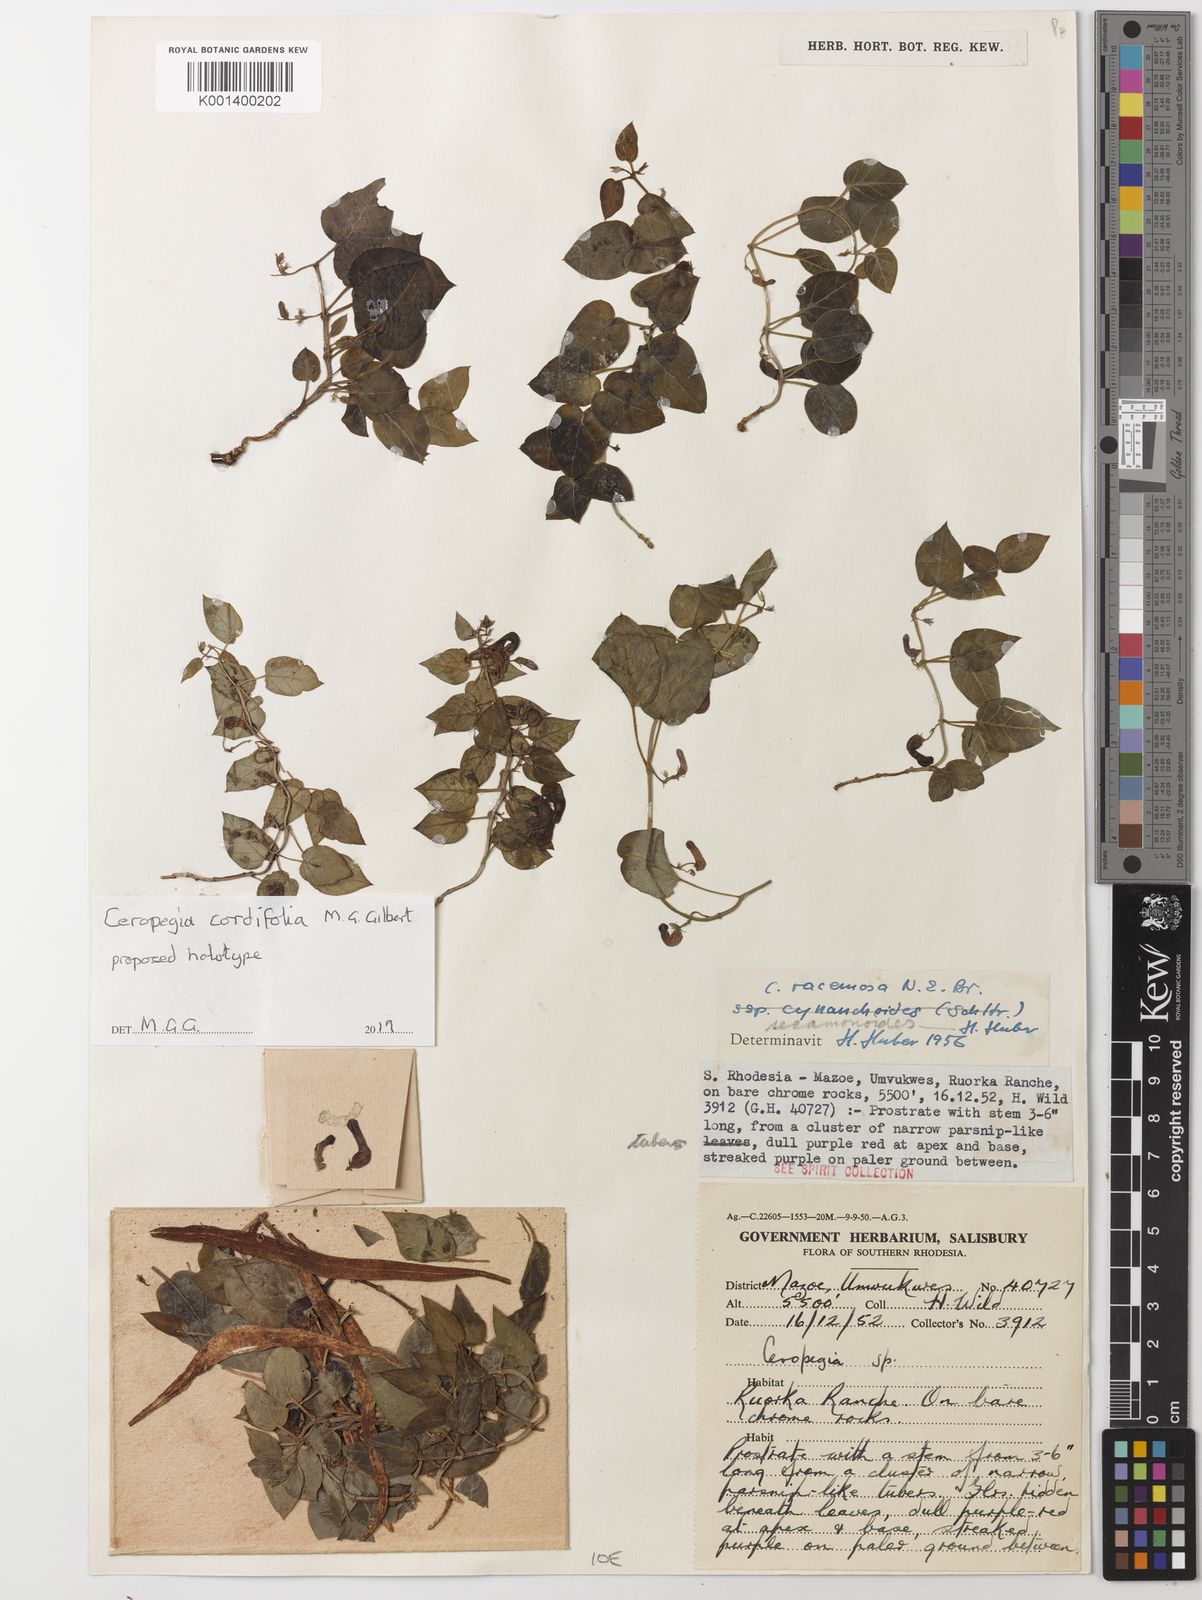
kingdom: Plantae
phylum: Tracheophyta
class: Magnoliopsida
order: Gentianales
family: Apocynaceae
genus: Ceropegia
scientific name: Ceropegia
